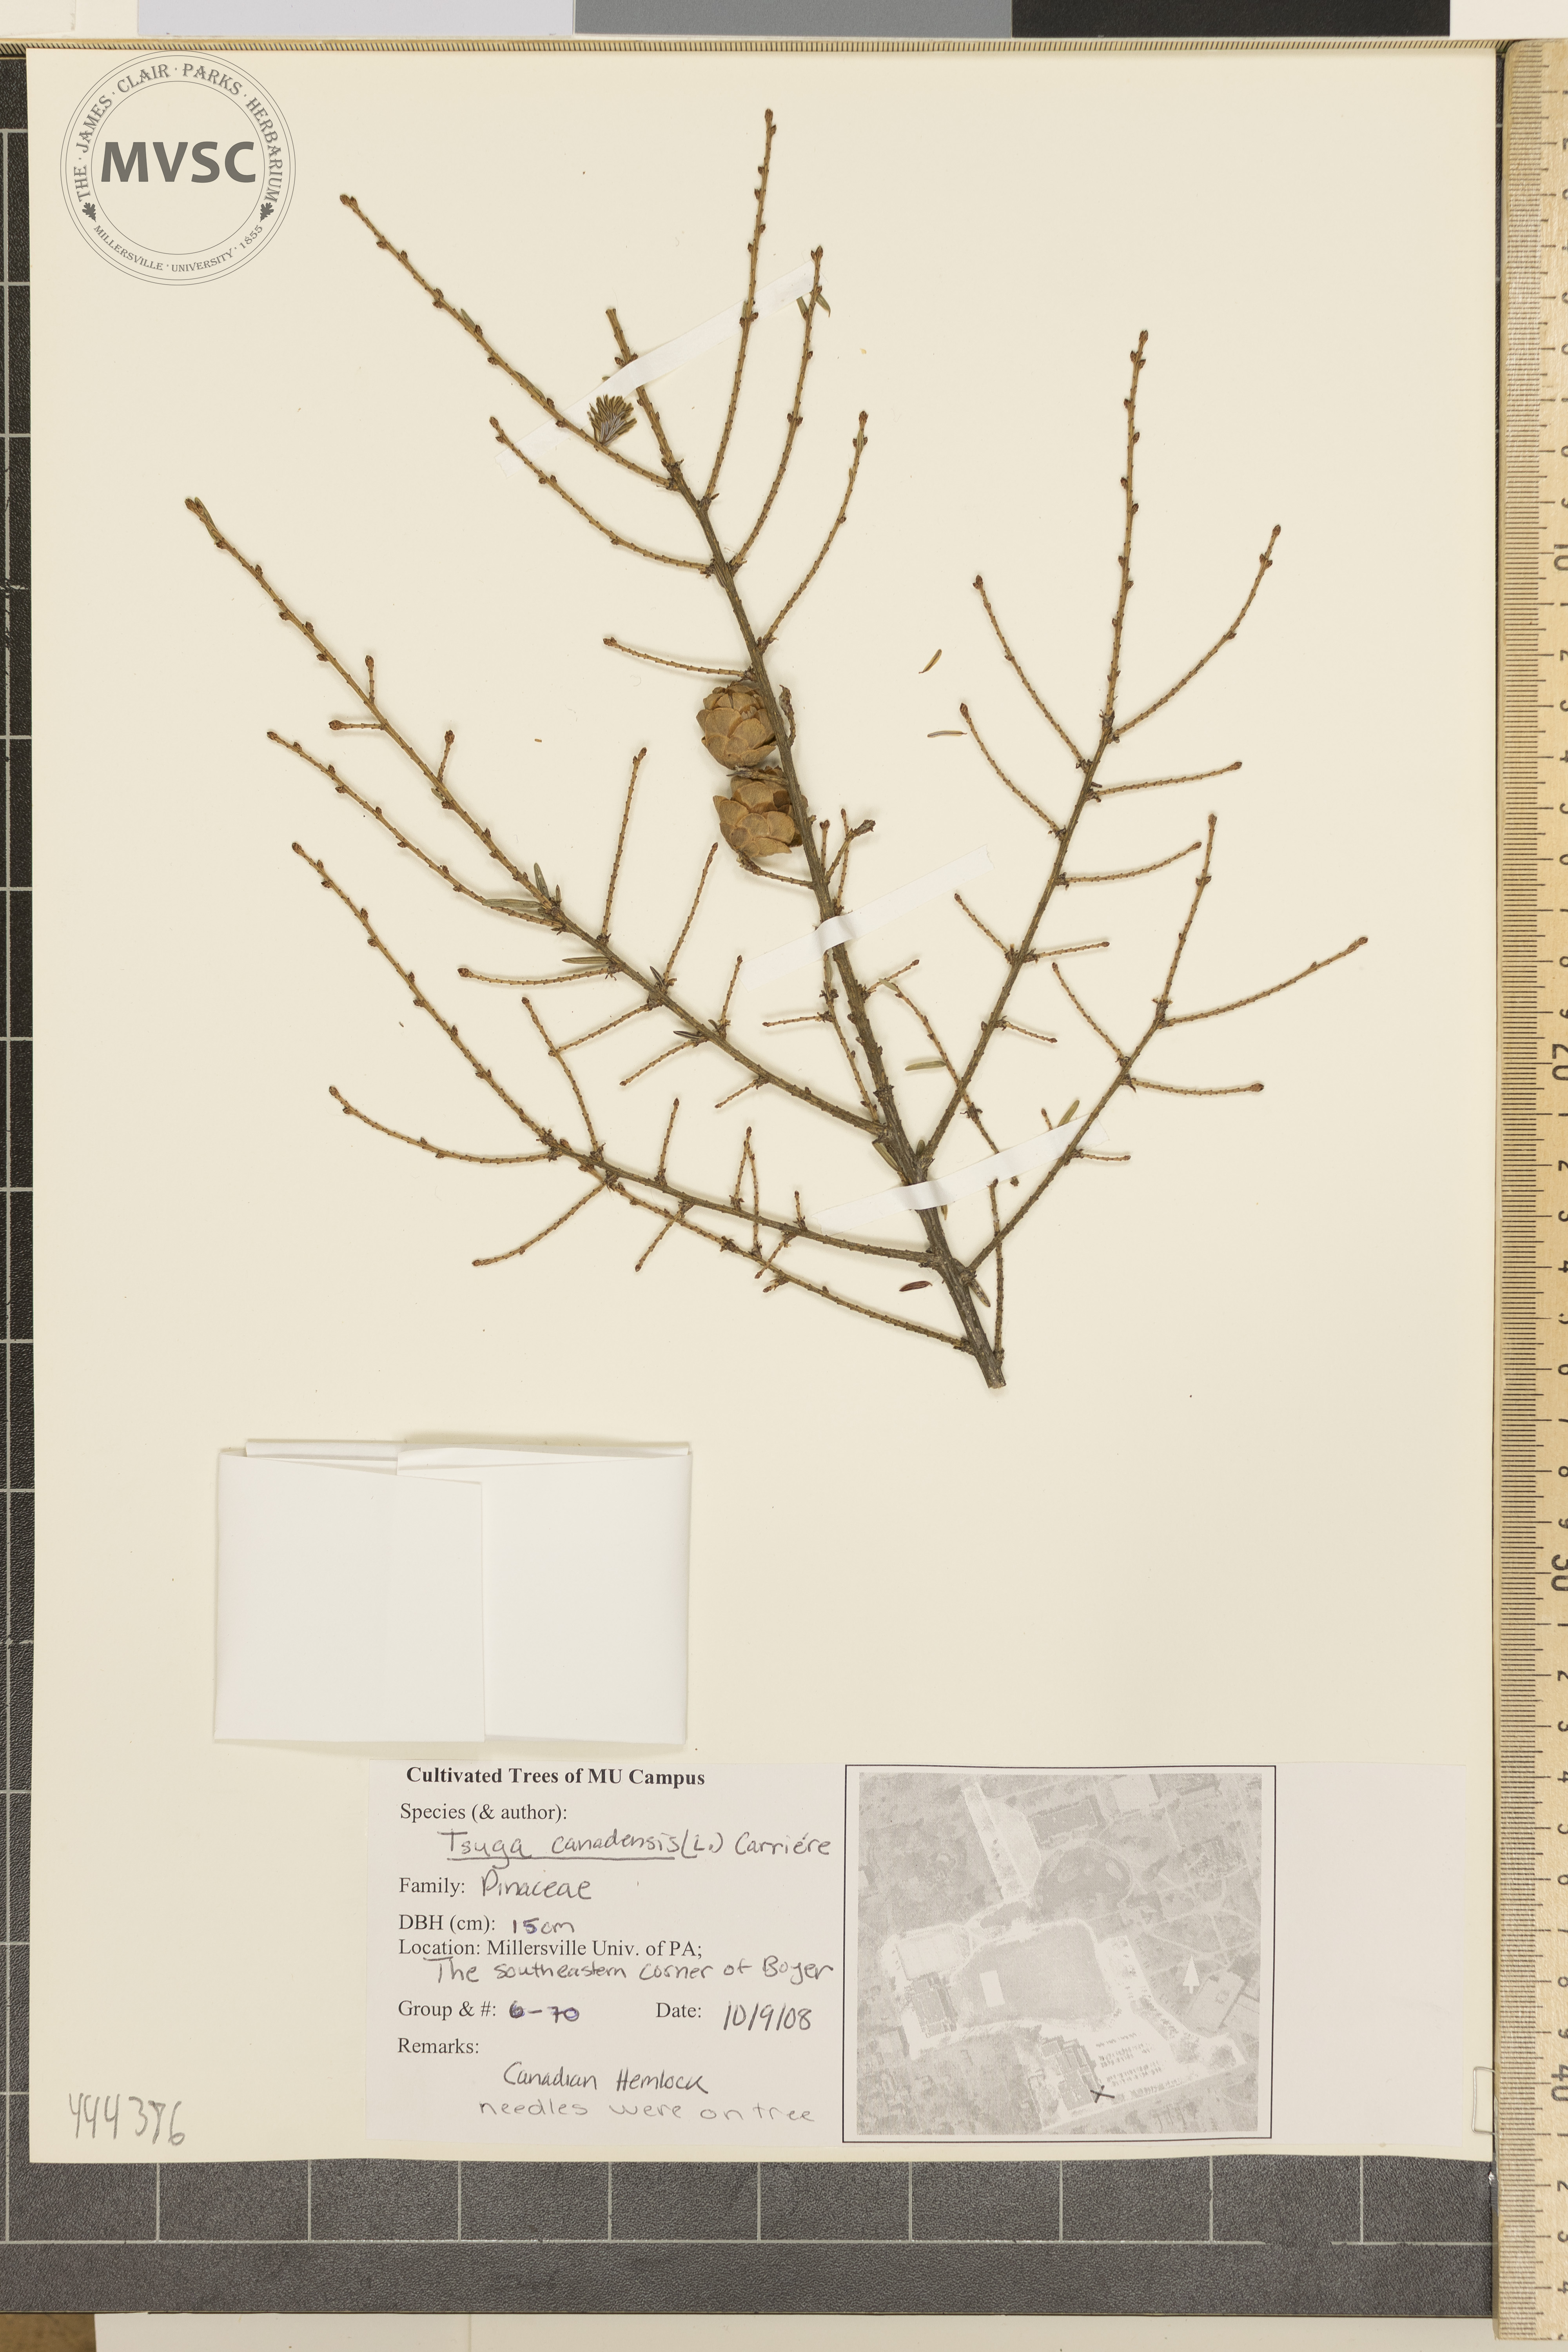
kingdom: Plantae
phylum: Tracheophyta
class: Pinopsida
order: Pinales
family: Pinaceae
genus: Tsuga
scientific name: Tsuga canadensis
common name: Canada hemlock
